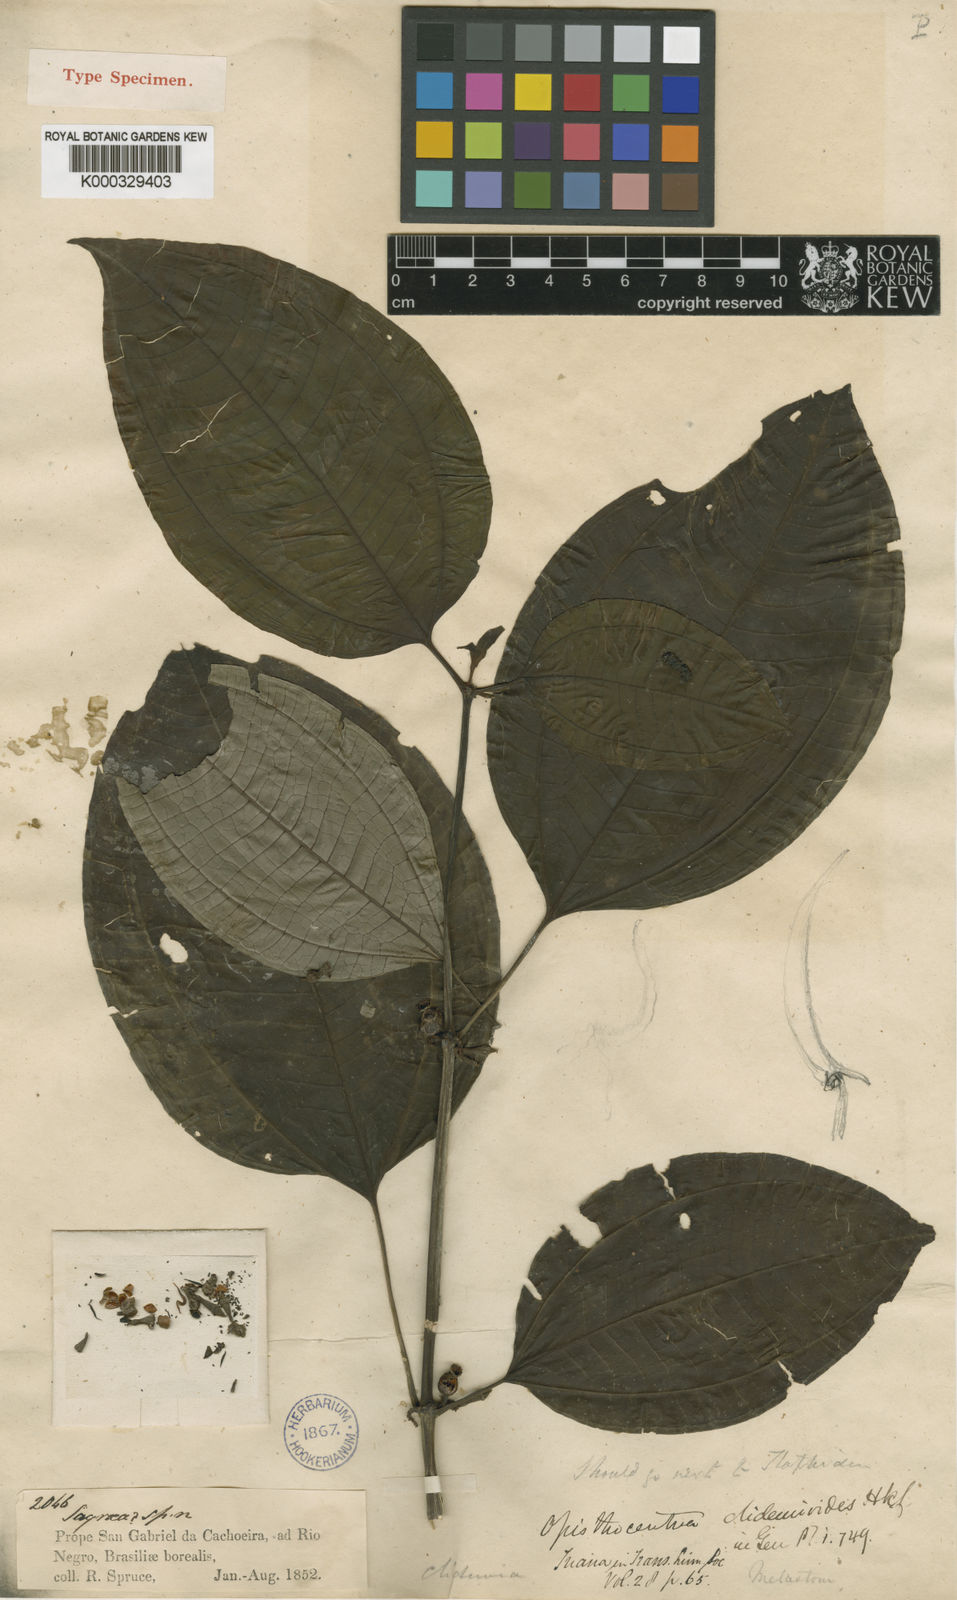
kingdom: Plantae
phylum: Tracheophyta
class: Magnoliopsida
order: Myrtales
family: Melastomataceae
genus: Opisthocentra
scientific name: Opisthocentra clidemioides
